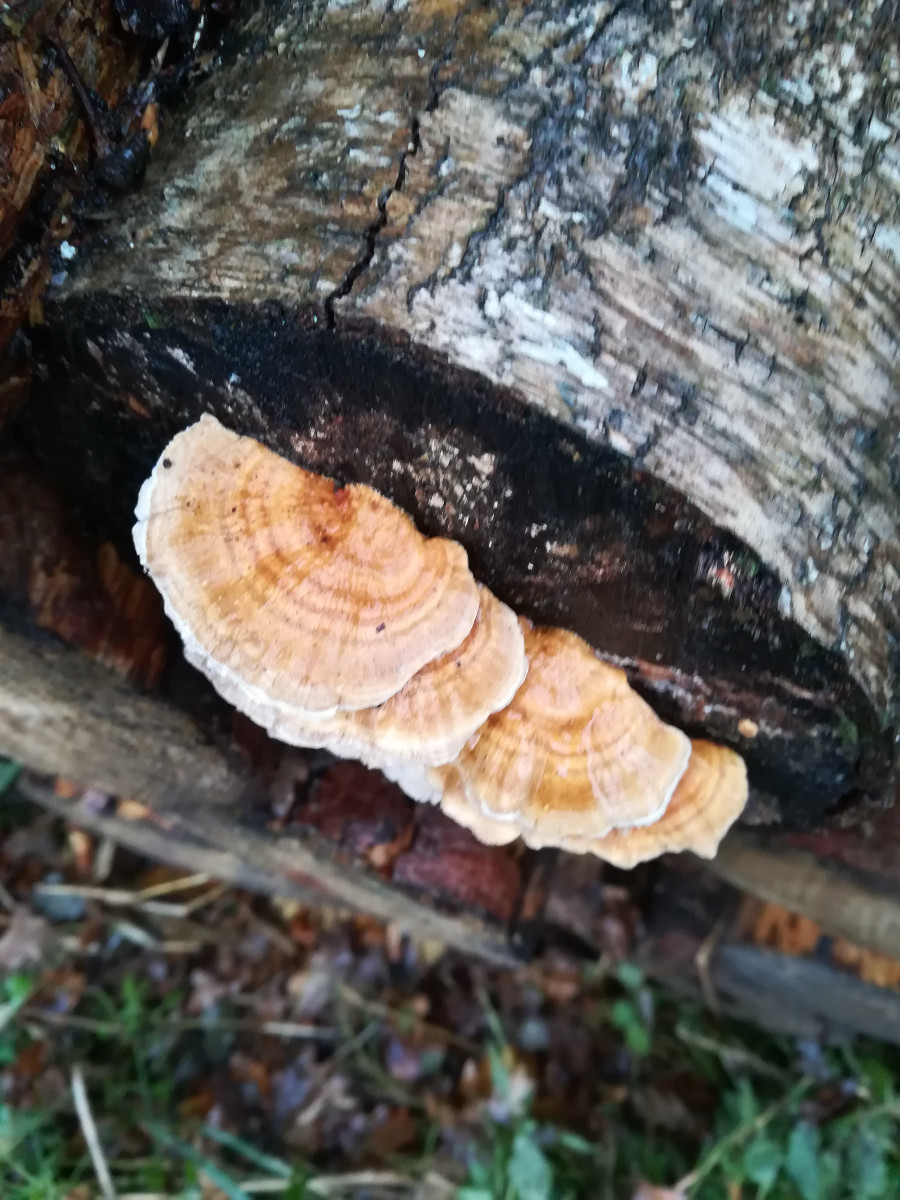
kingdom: Fungi
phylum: Basidiomycota
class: Agaricomycetes
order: Polyporales
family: Polyporaceae
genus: Trametes
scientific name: Trametes ochracea
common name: bæltet læderporesvamp
